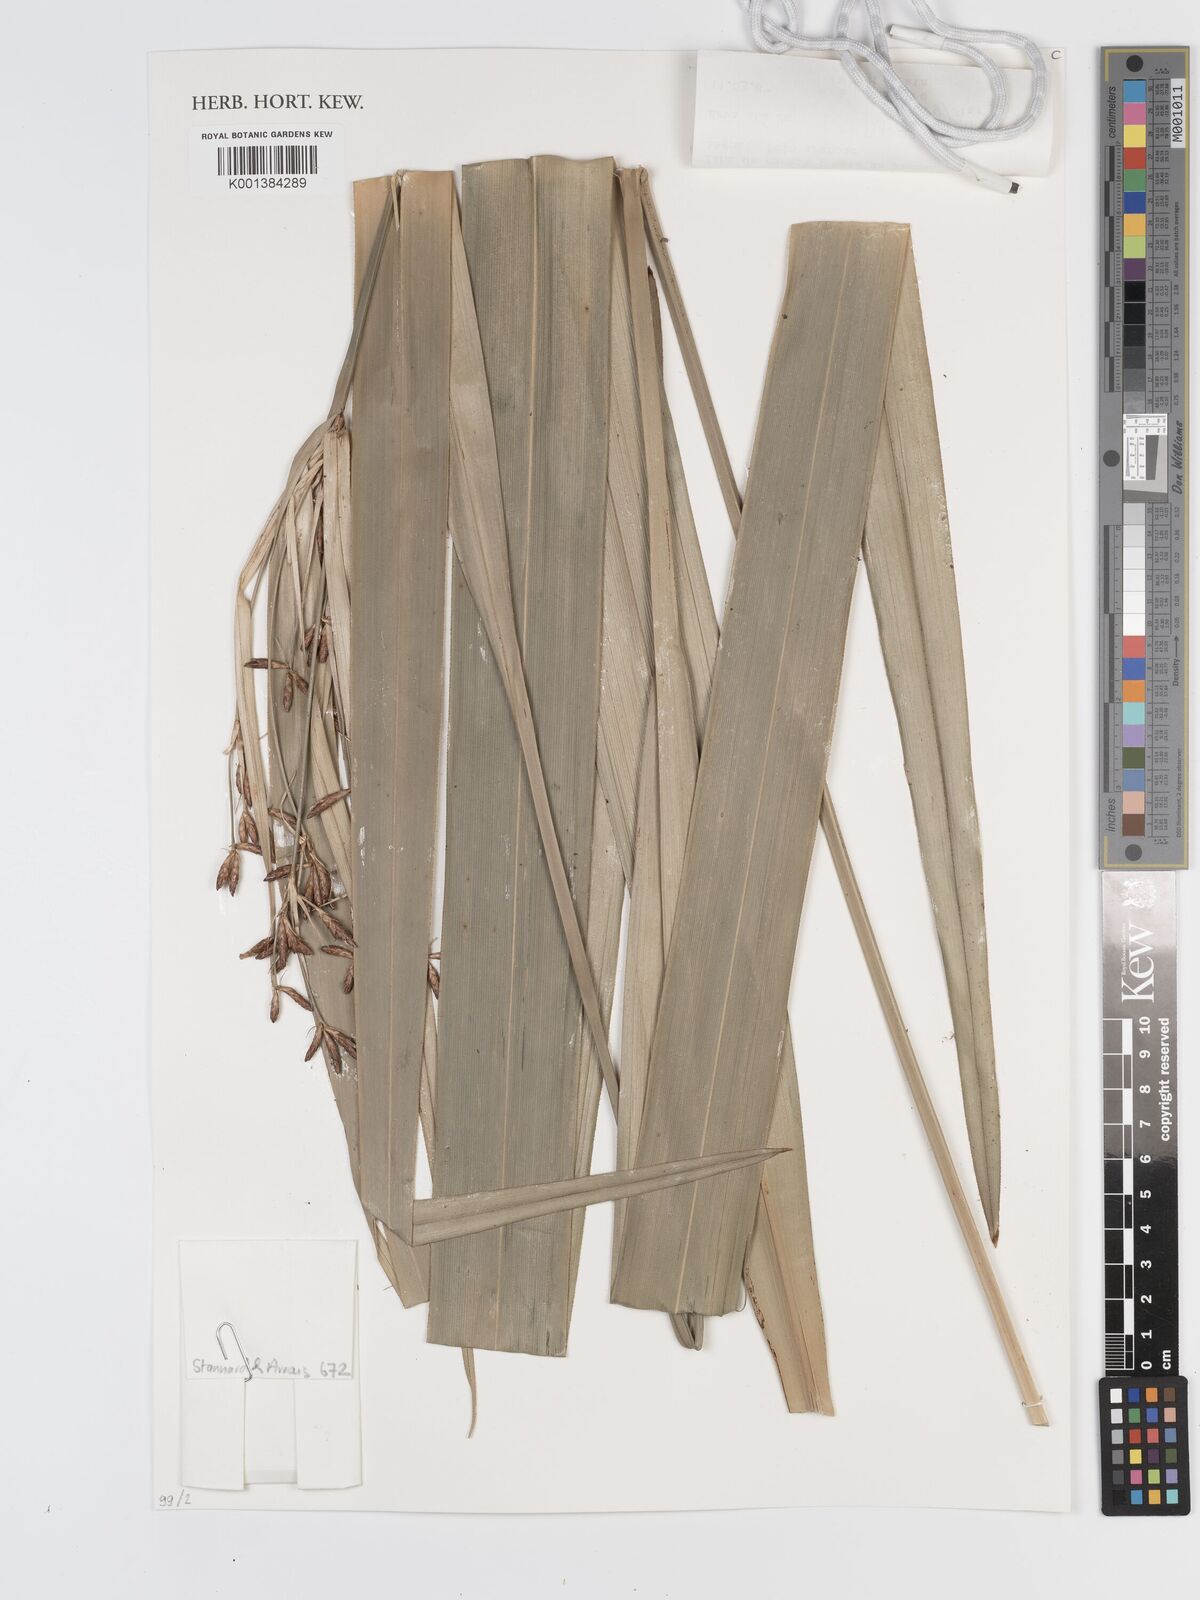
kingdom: Plantae
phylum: Tracheophyta
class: Liliopsida
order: Poales
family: Cyperaceae
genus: Diplasia
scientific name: Diplasia karatifolia
